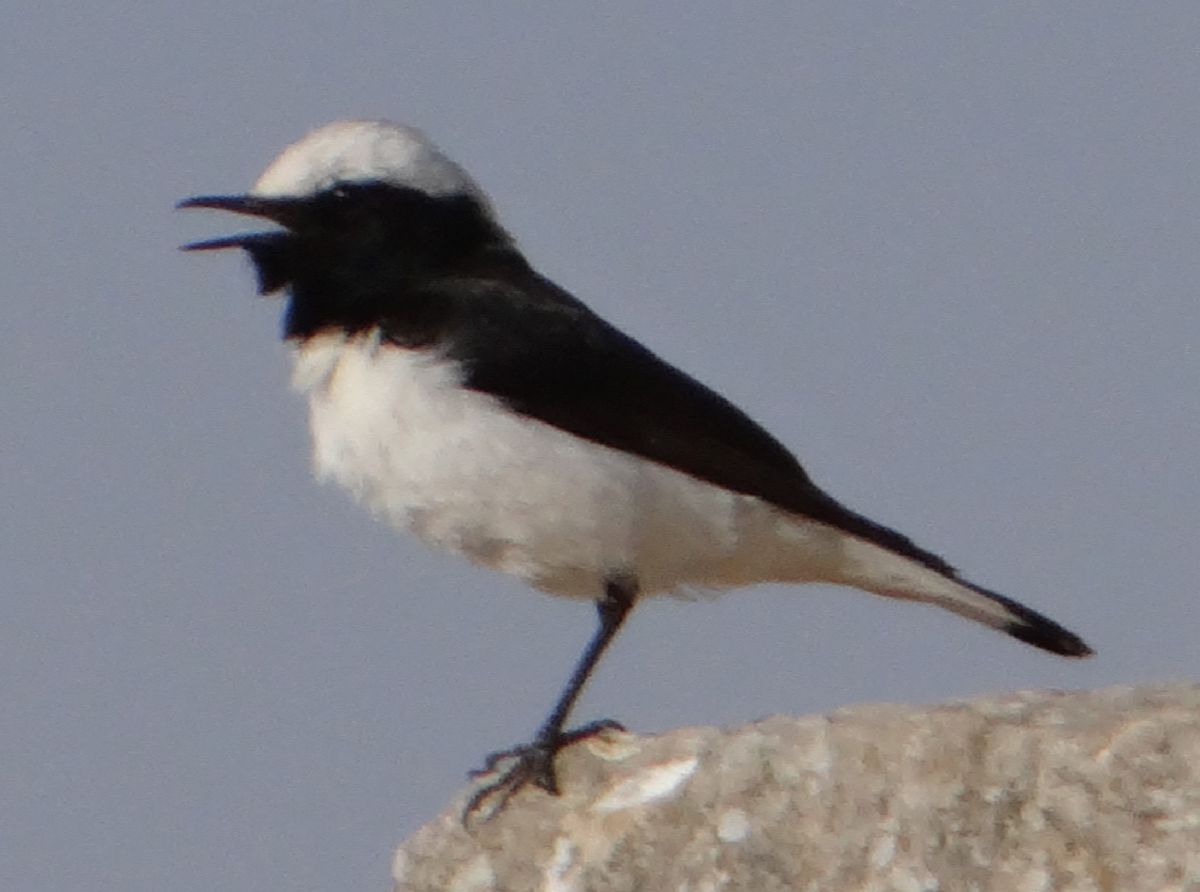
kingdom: Animalia
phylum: Chordata
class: Aves
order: Passeriformes
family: Muscicapidae
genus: Oenanthe
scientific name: Oenanthe finschii
